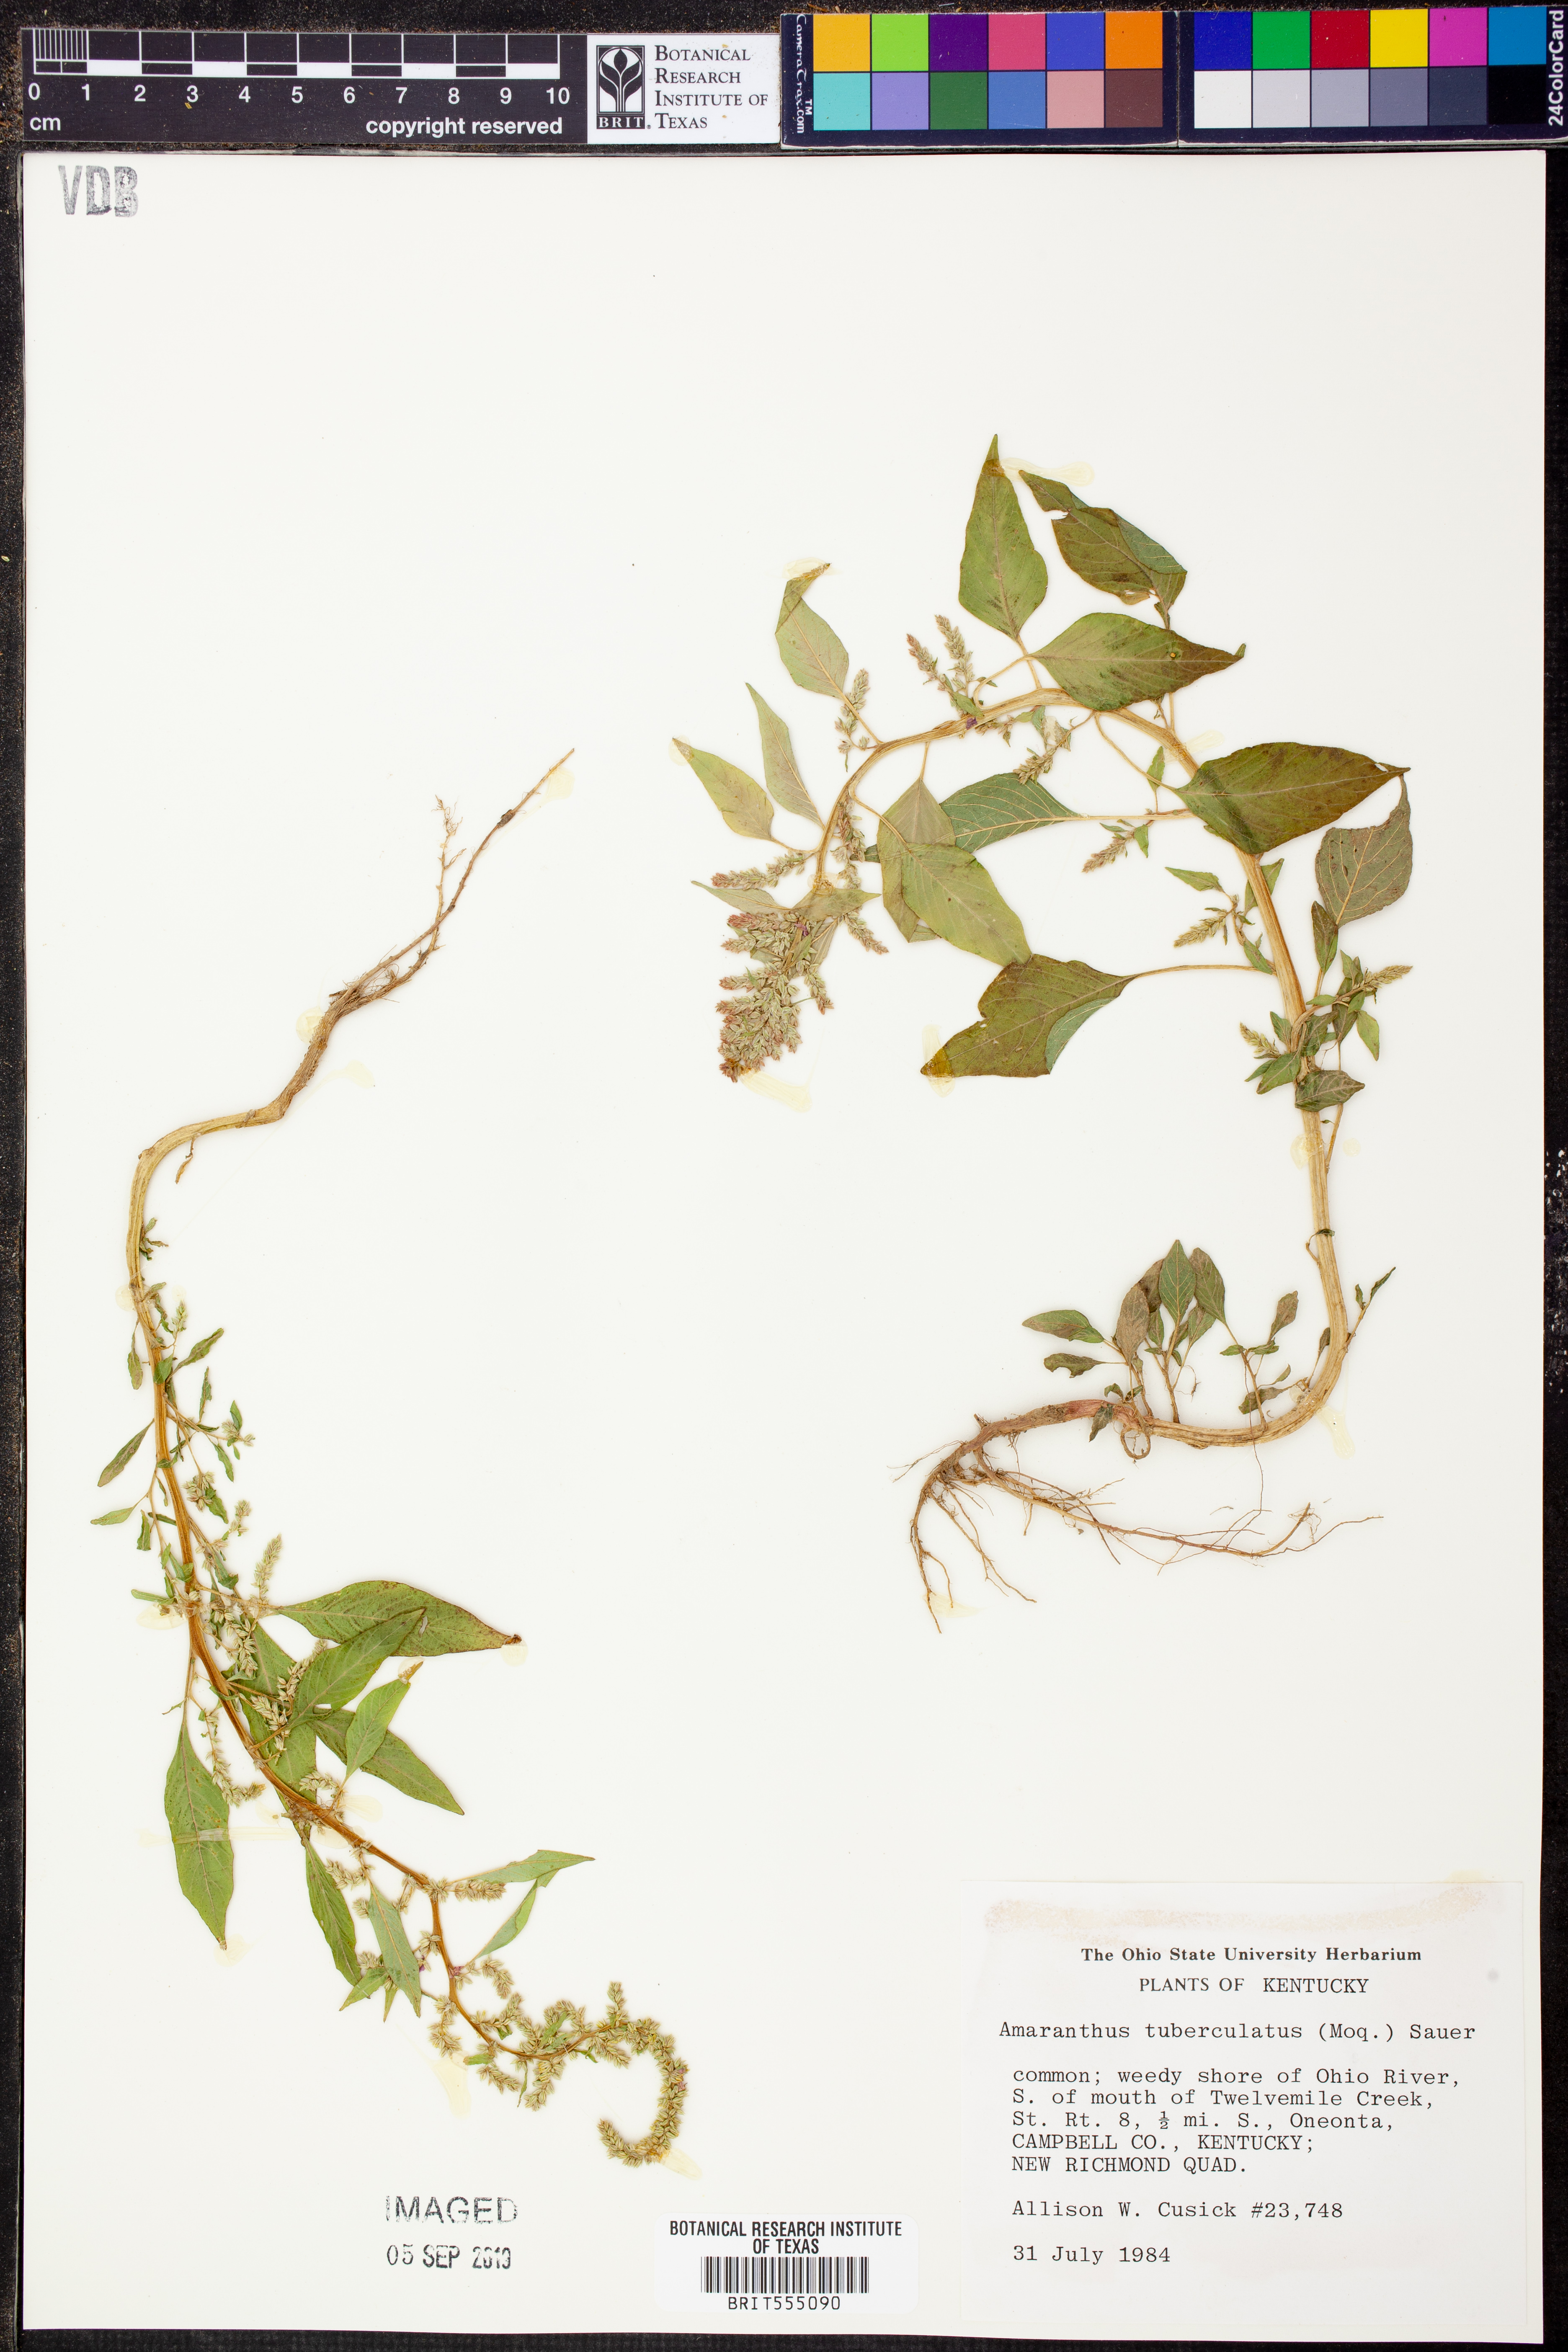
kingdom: Plantae
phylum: Tracheophyta
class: Magnoliopsida
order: Caryophyllales
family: Amaranthaceae
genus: Amaranthus
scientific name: Amaranthus tuberculatus
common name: Rough-fruit amaranth
